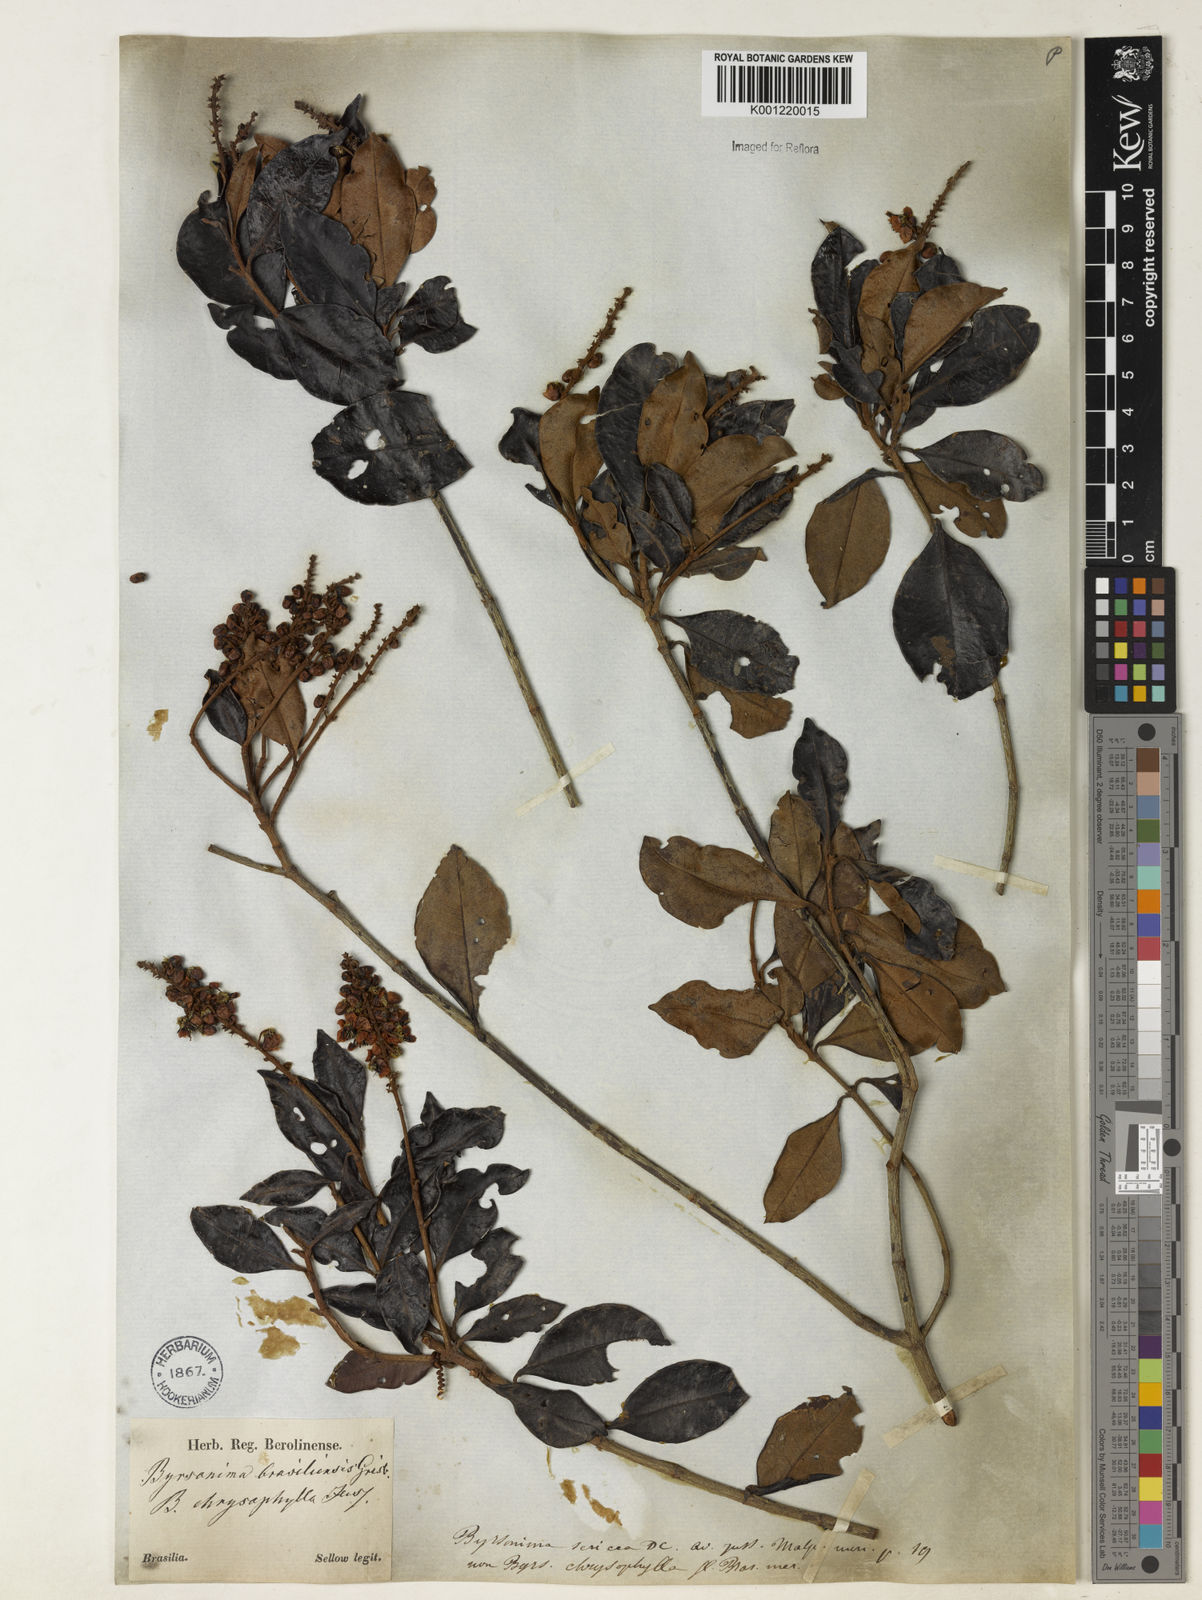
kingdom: Plantae
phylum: Tracheophyta
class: Magnoliopsida
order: Malpighiales
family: Malpighiaceae
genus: Byrsonima
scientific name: Byrsonima sericea
